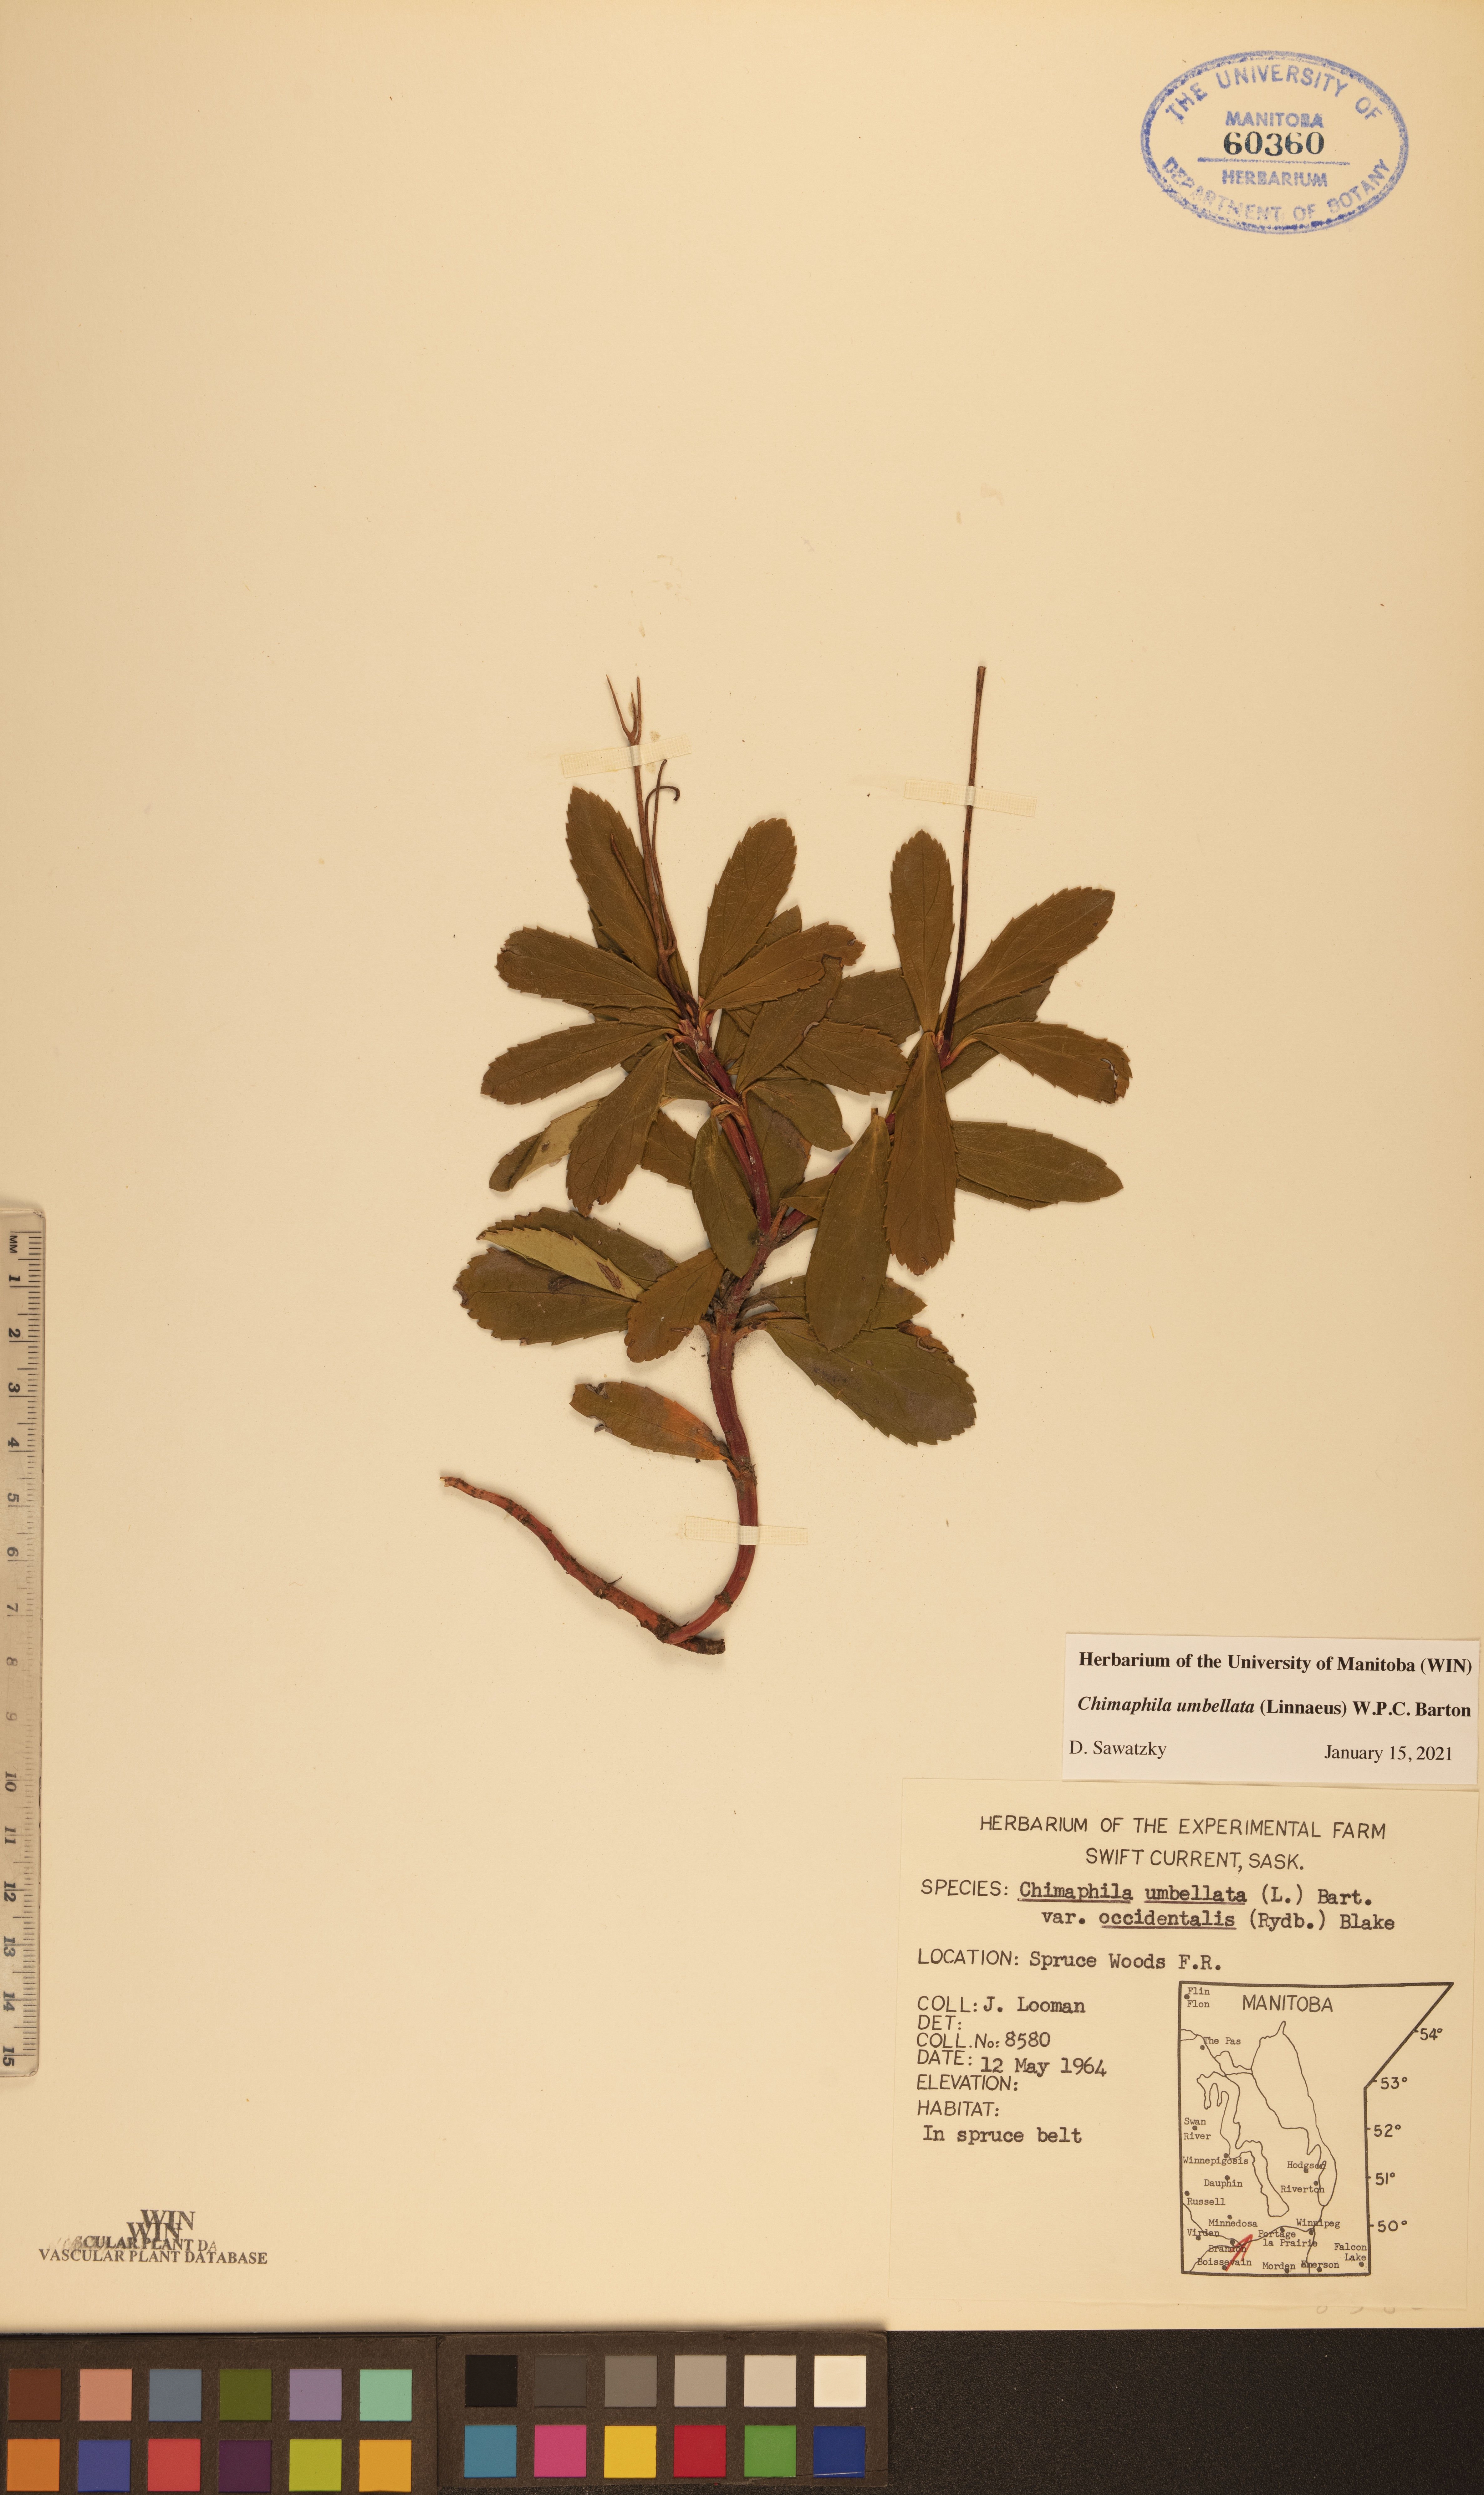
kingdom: Plantae
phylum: Tracheophyta
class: Magnoliopsida
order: Ericales
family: Ericaceae
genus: Chimaphila
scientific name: Chimaphila umbellata
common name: Pipsissewa
